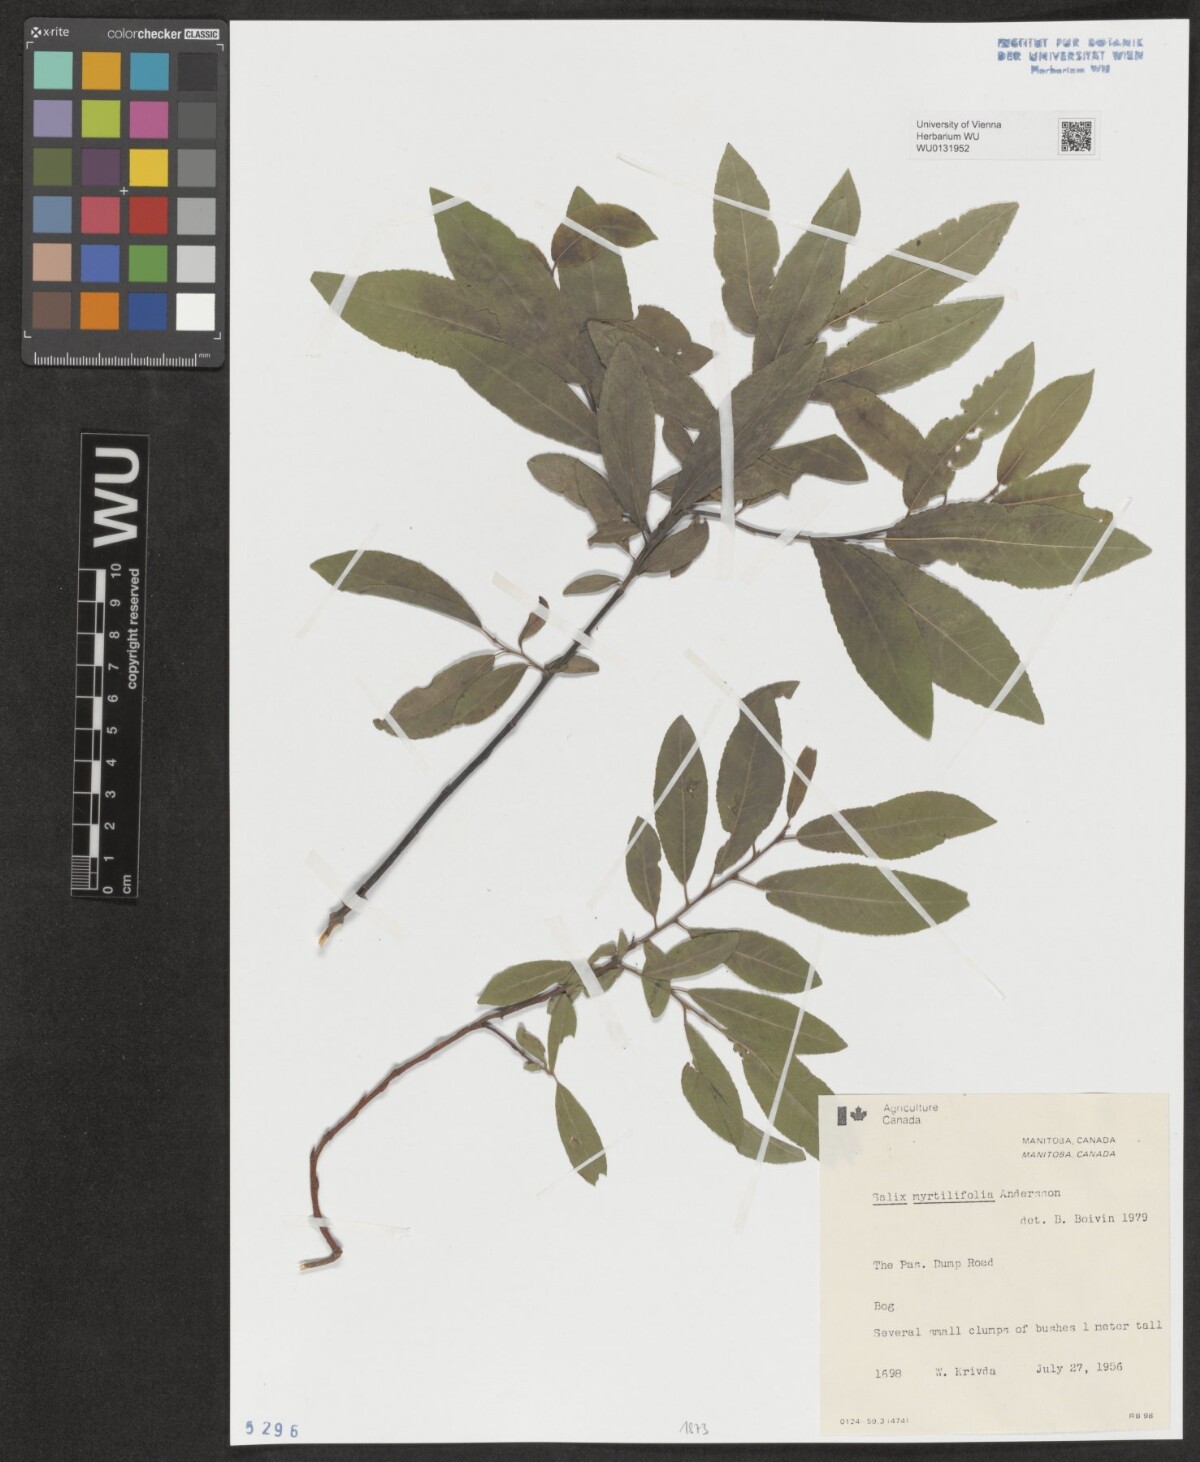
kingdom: Plantae
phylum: Tracheophyta
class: Magnoliopsida
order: Malpighiales
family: Salicaceae
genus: Salix
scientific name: Salix myrtillifolia
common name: Bilberry willow
